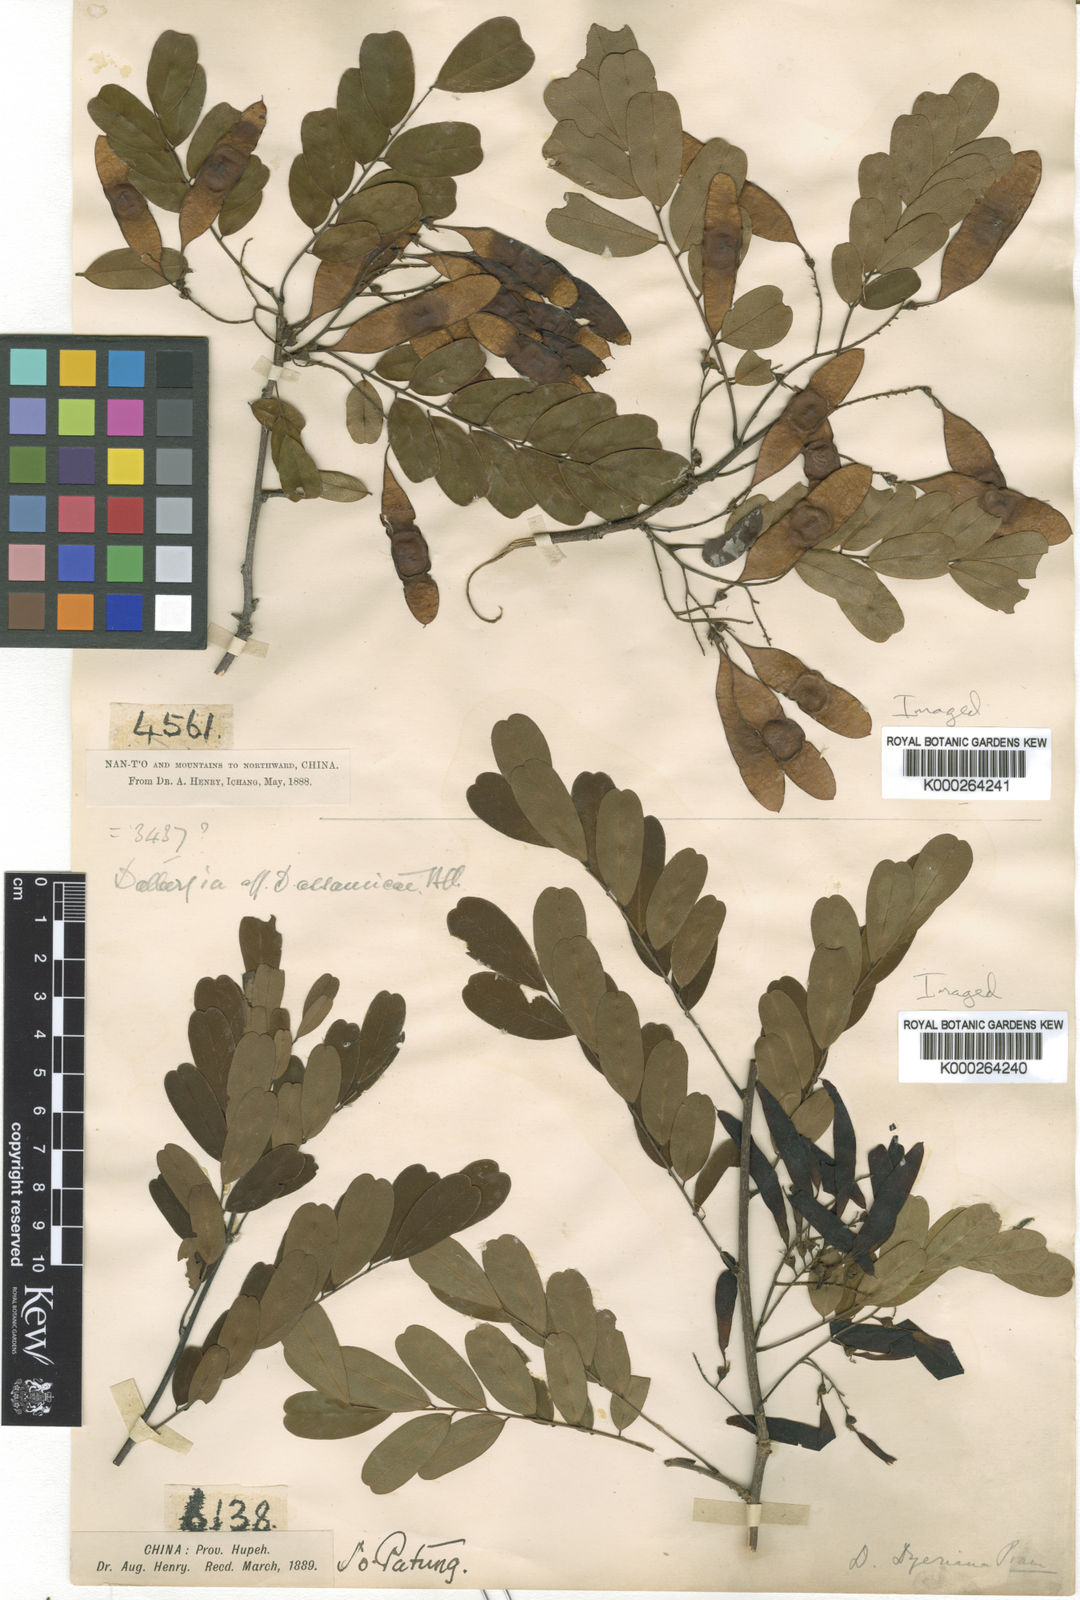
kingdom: Plantae
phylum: Tracheophyta
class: Magnoliopsida
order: Fabales
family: Fabaceae
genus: Dalbergia
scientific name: Dalbergia dyeriana
